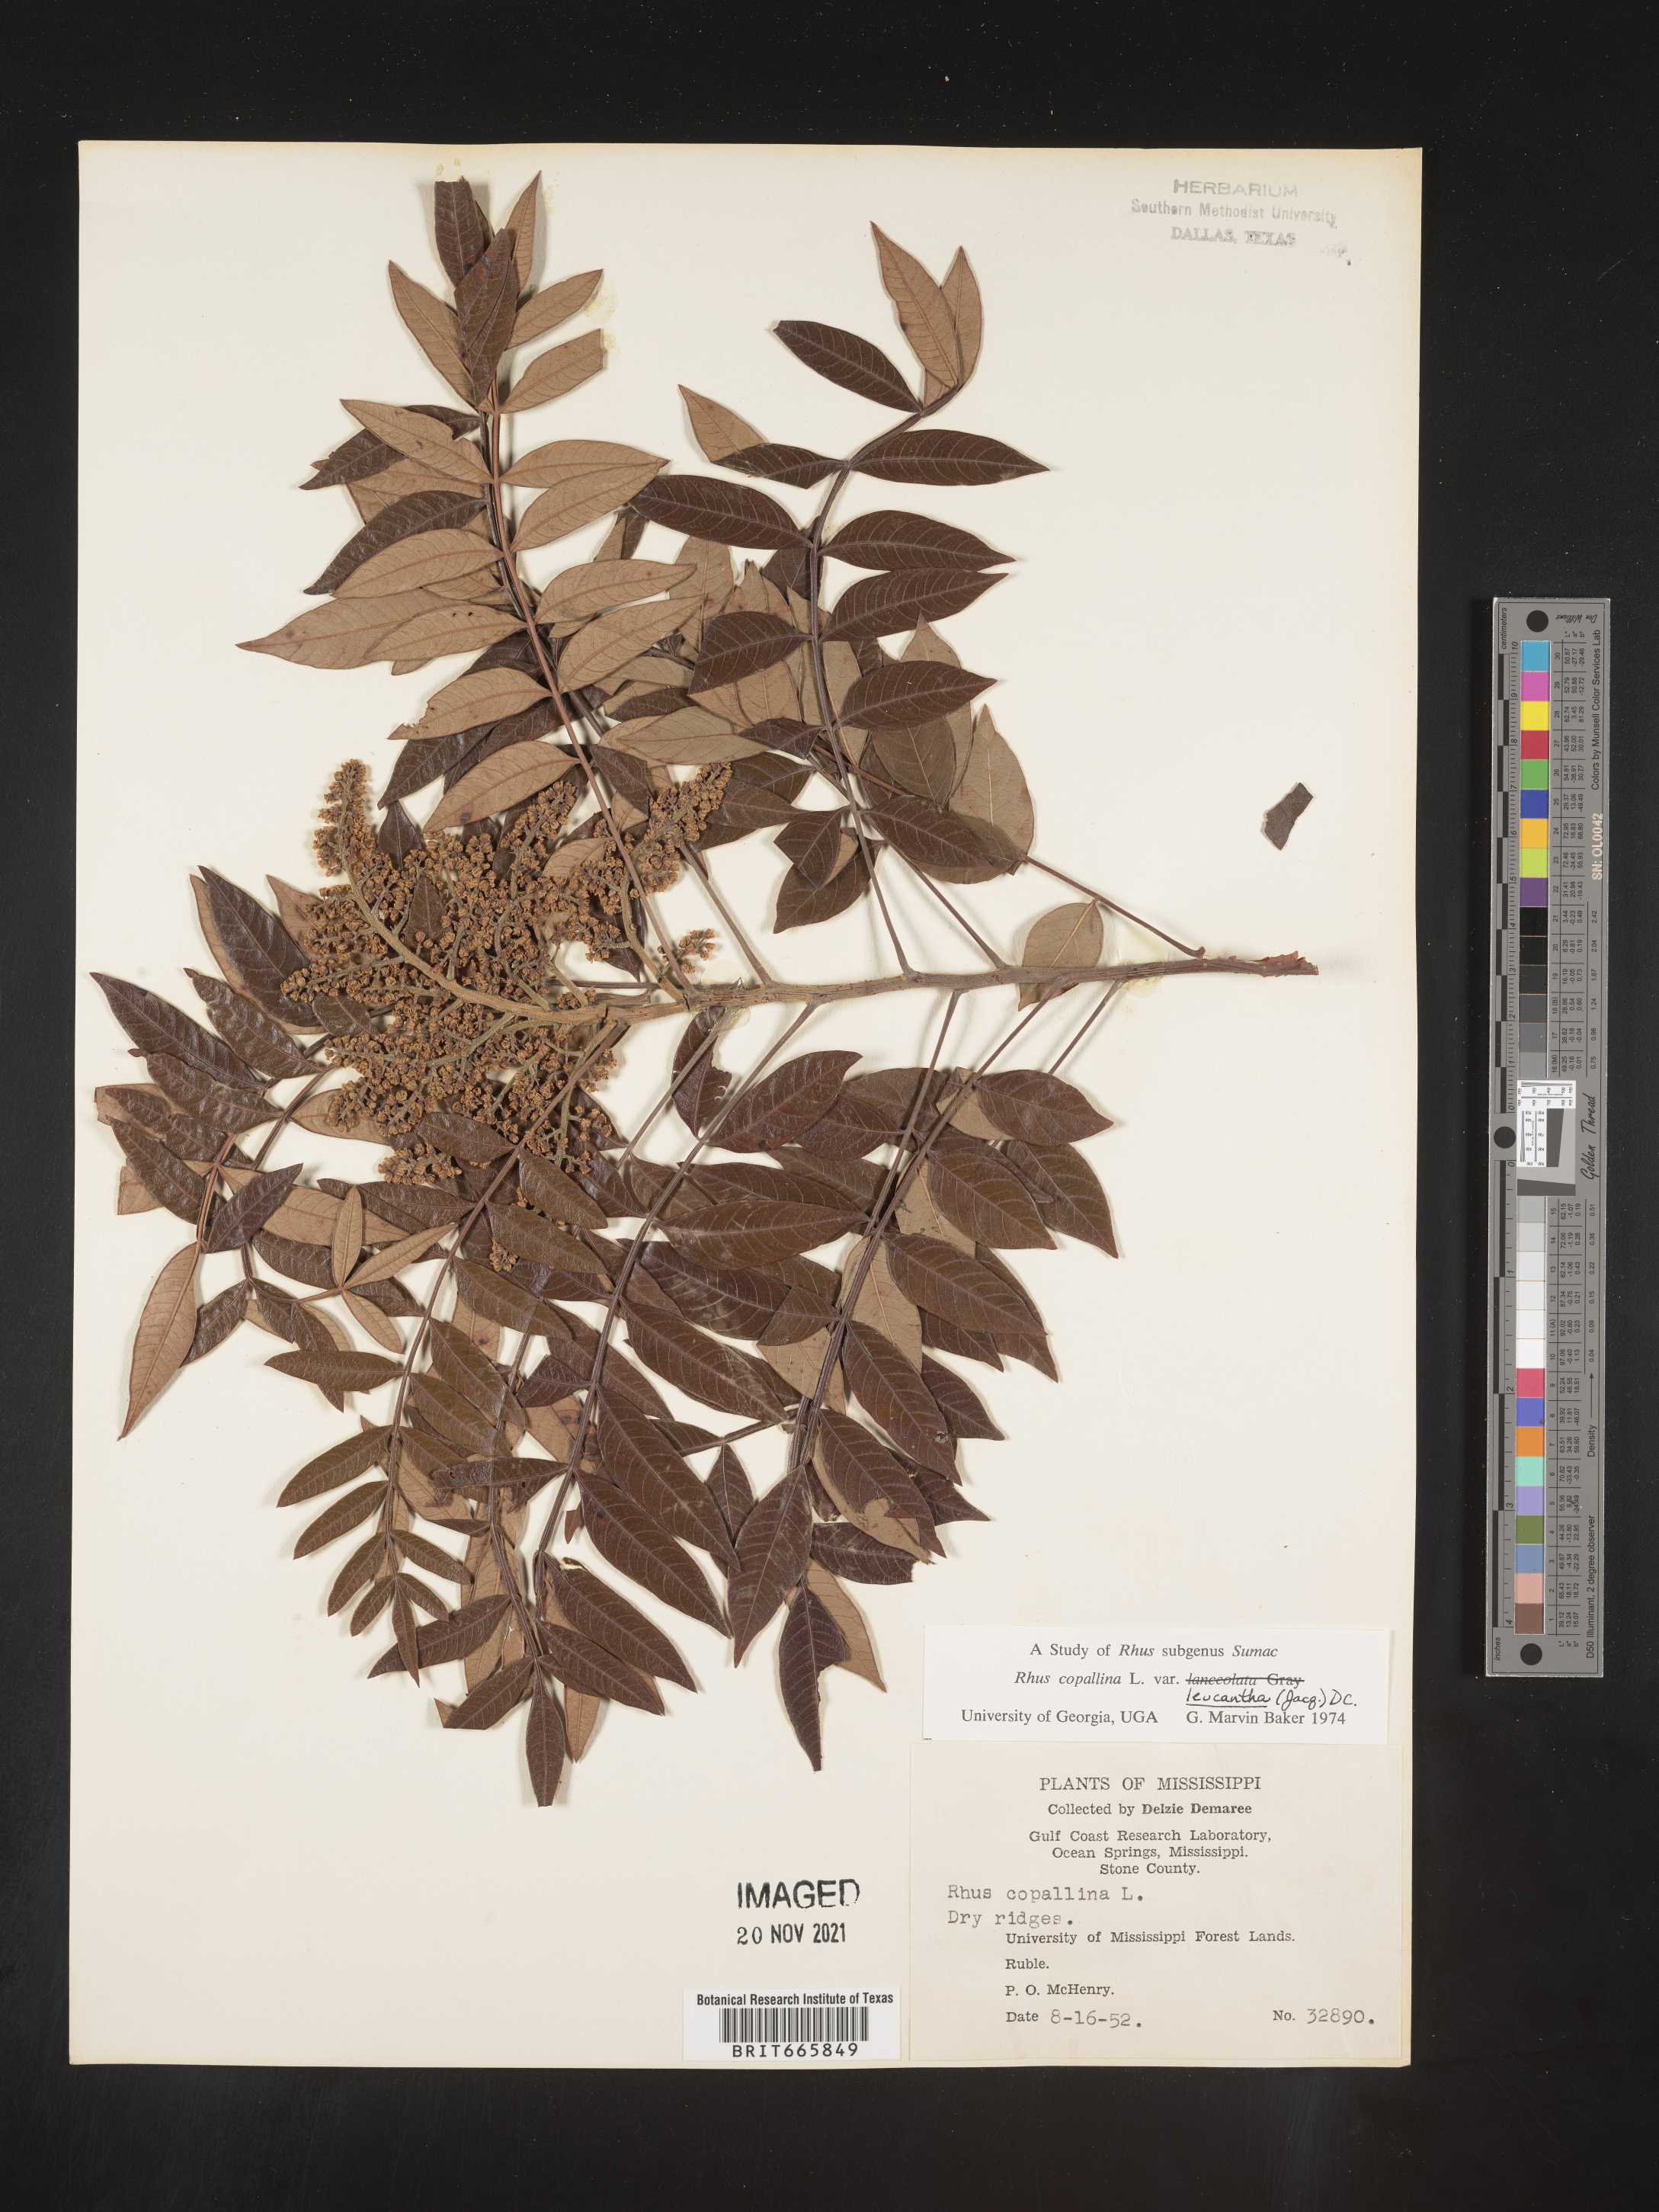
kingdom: Plantae
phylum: Tracheophyta
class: Magnoliopsida
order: Sapindales
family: Anacardiaceae
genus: Rhus
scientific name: Rhus copallina
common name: Shining sumac
